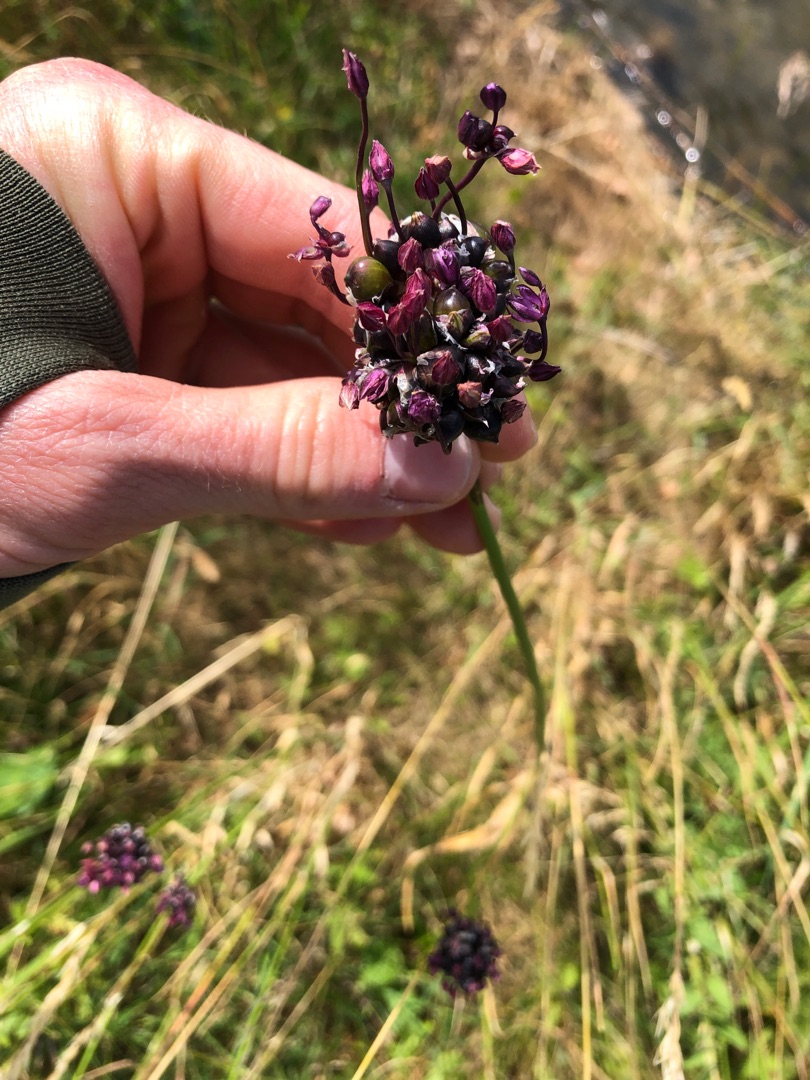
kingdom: Plantae
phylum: Tracheophyta
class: Liliopsida
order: Asparagales
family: Amaryllidaceae
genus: Allium
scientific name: Allium scorodoprasum
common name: Skov-løg
